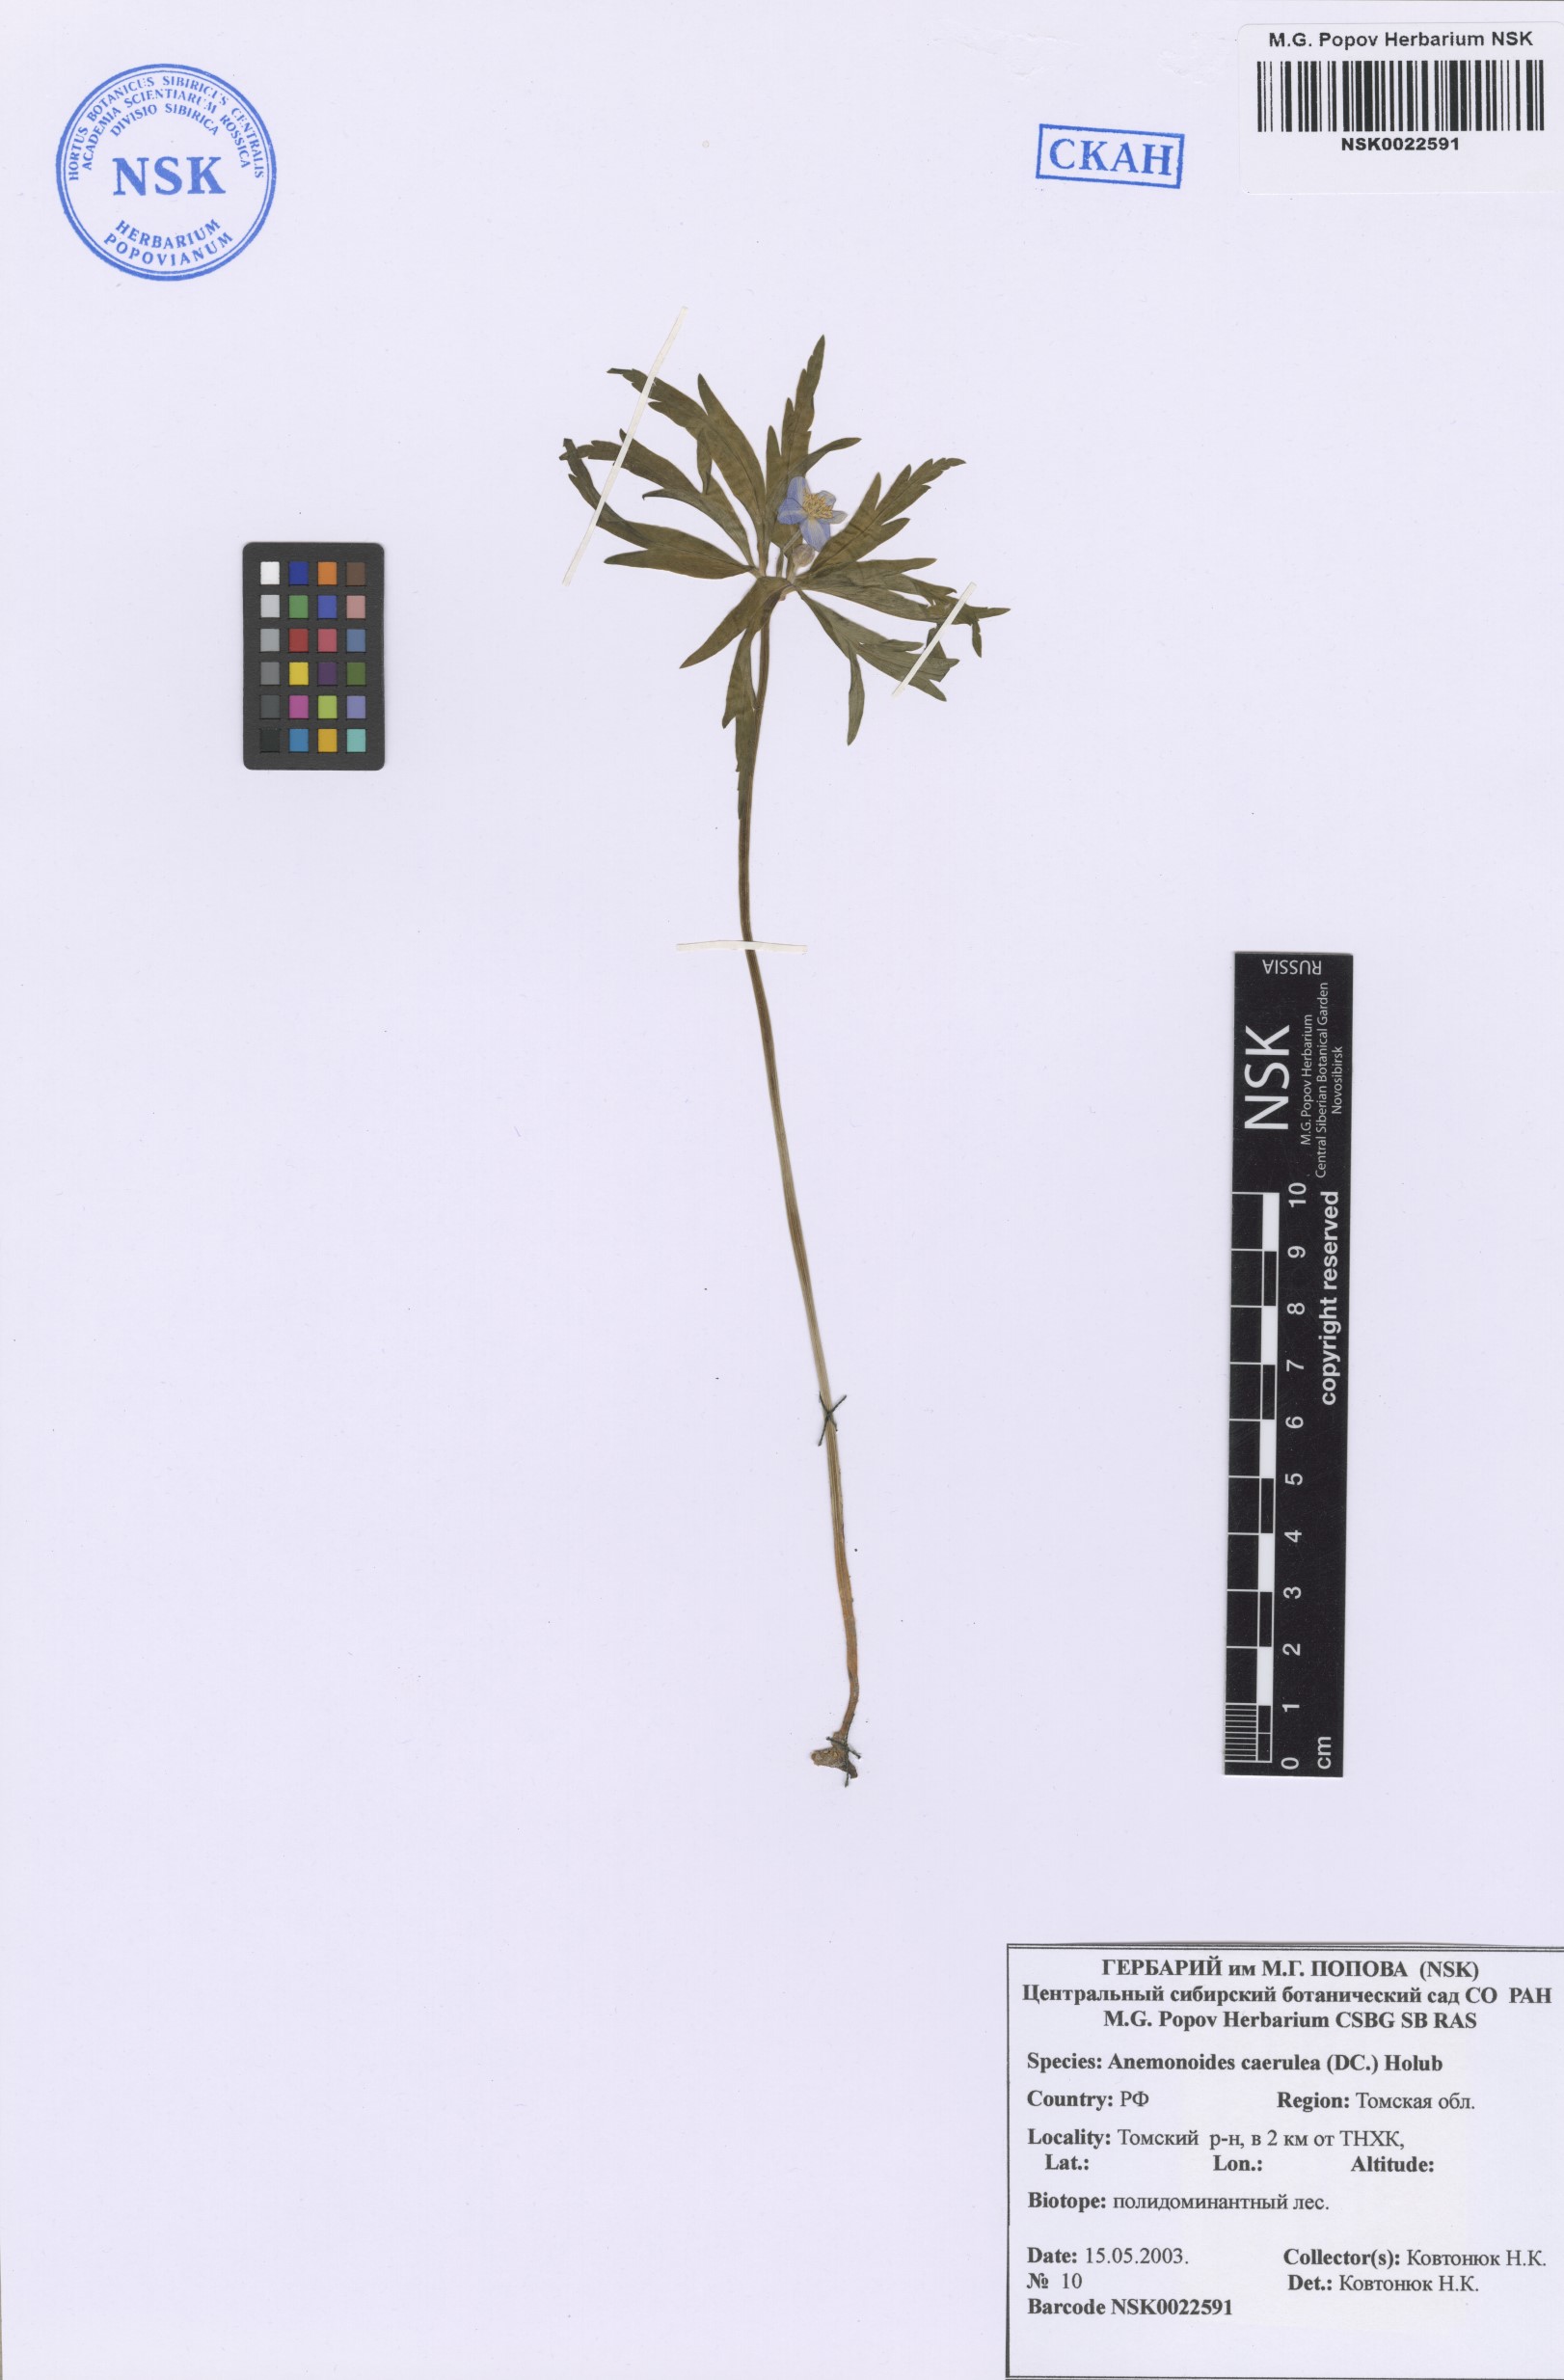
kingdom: Plantae
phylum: Tracheophyta
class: Magnoliopsida
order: Ranunculales
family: Ranunculaceae
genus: Anemone
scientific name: Anemone caerulea
